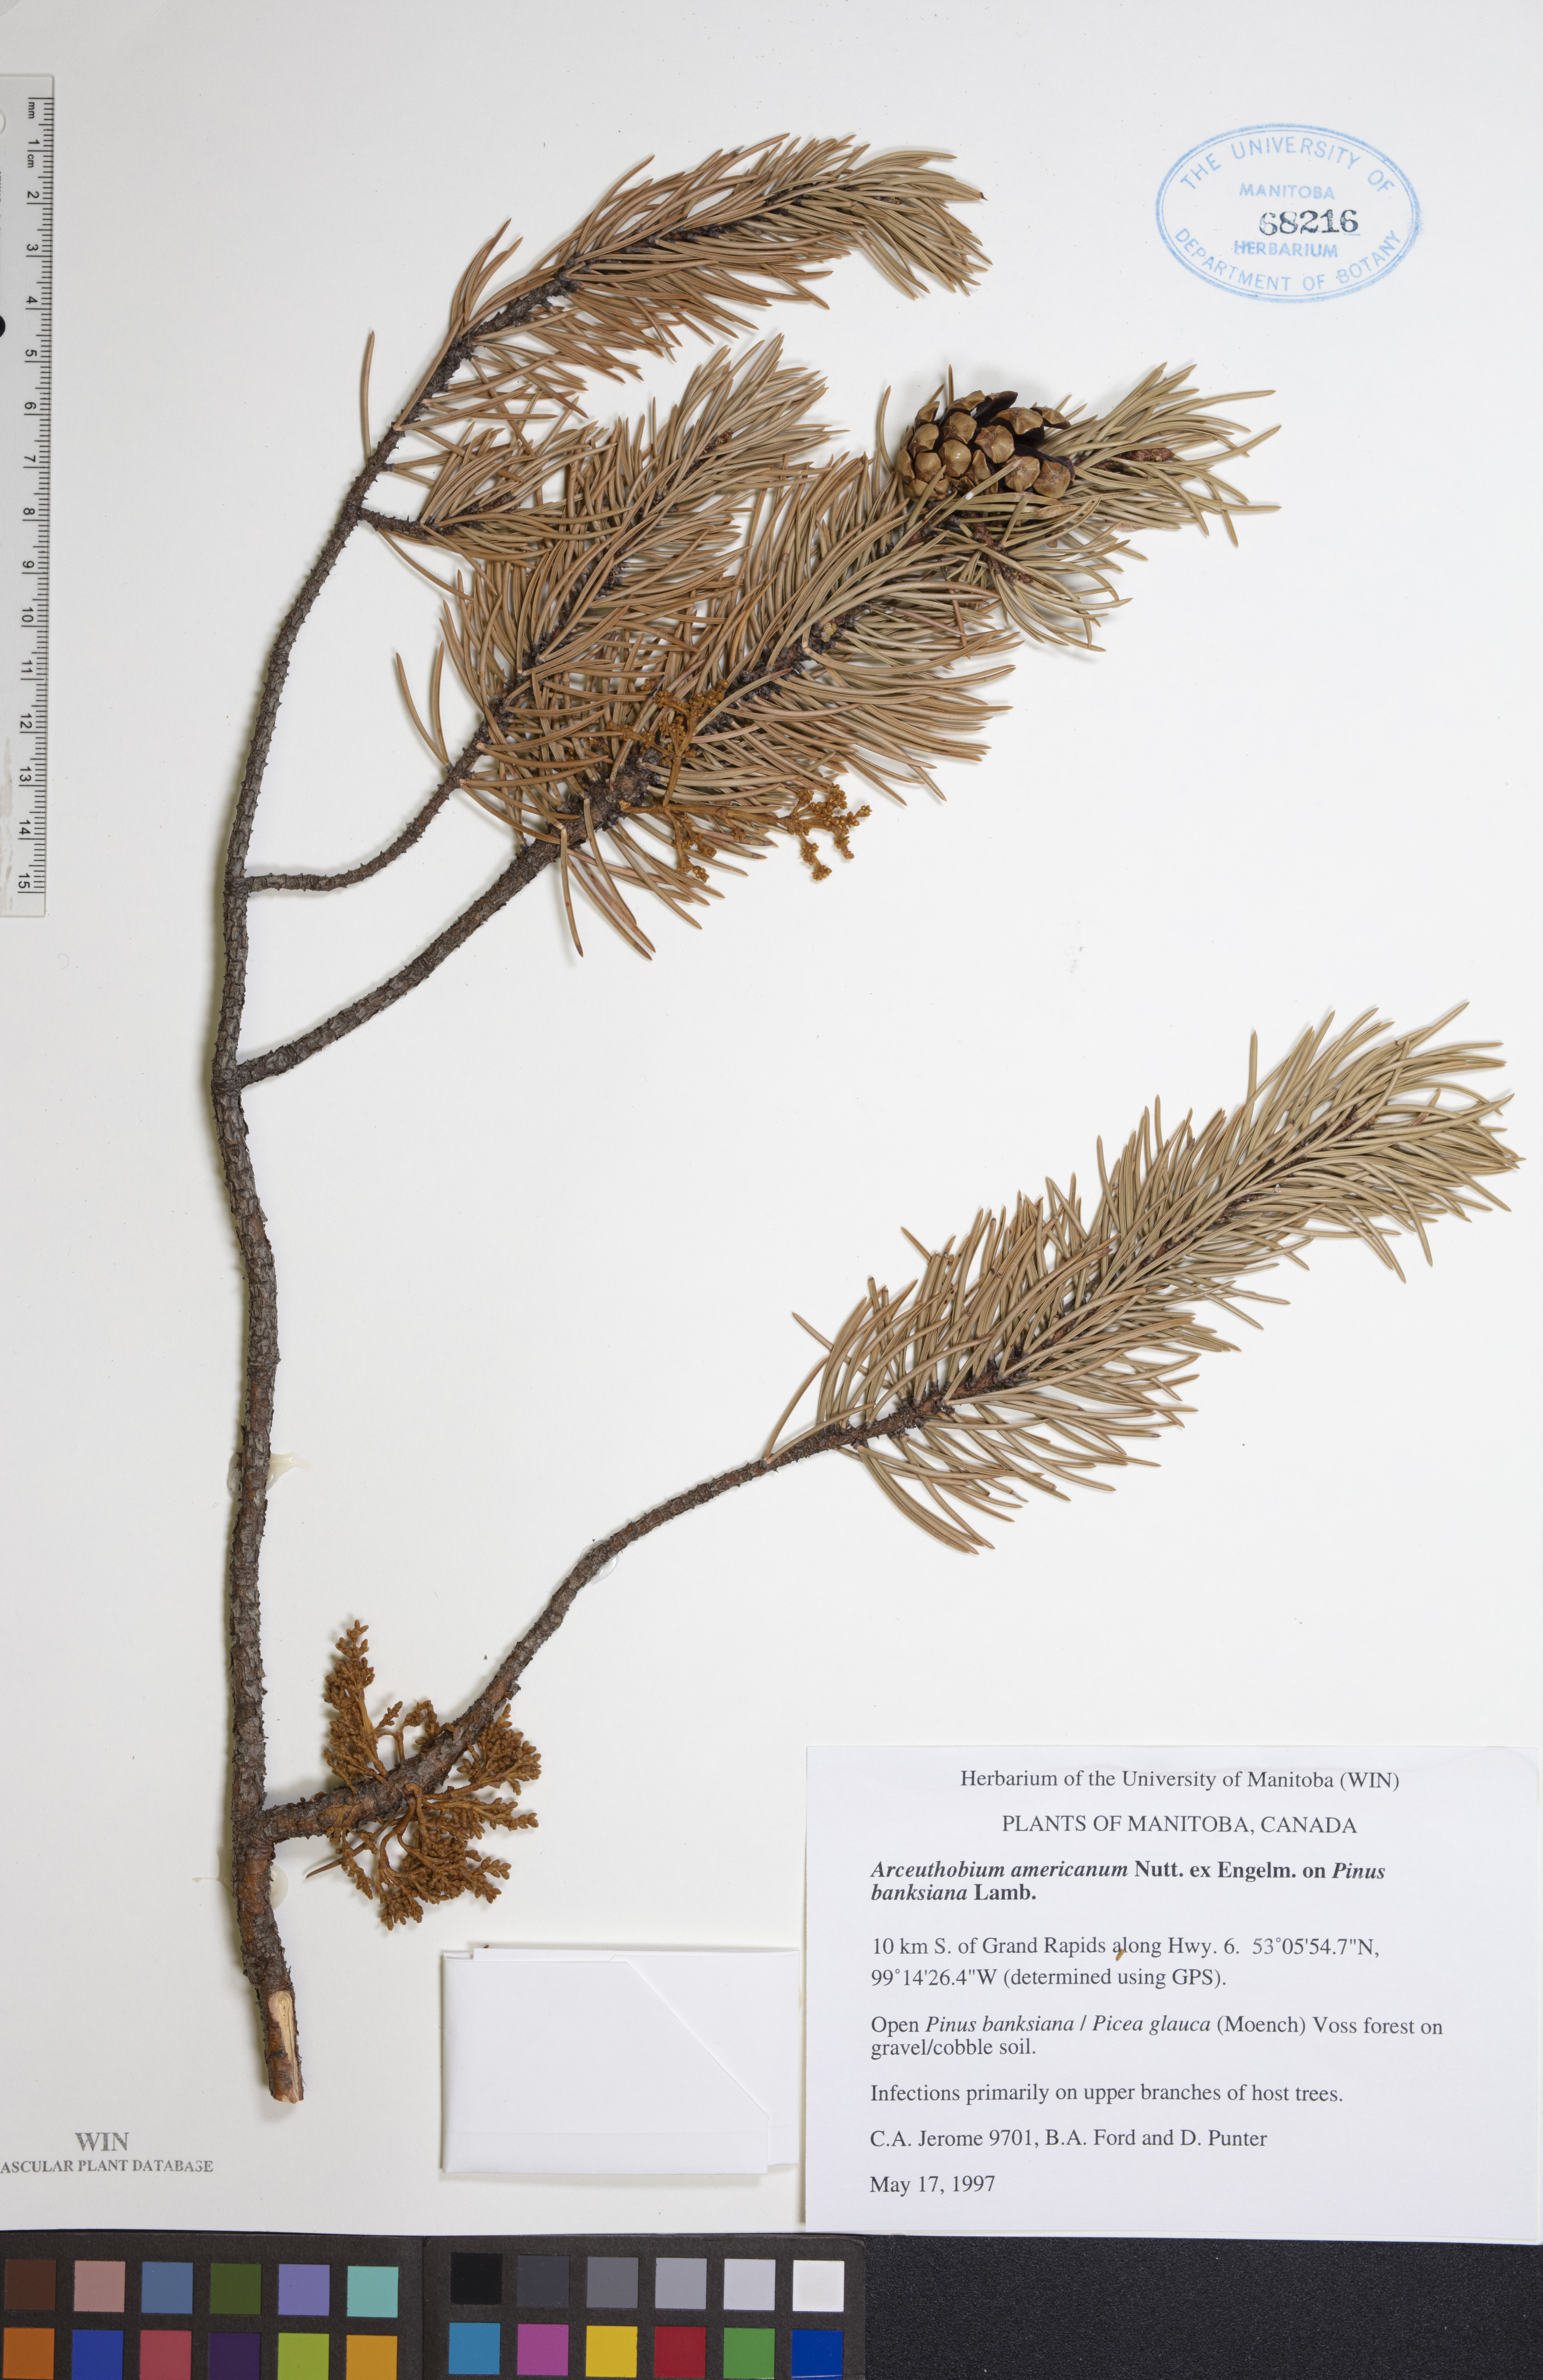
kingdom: Plantae
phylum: Tracheophyta
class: Magnoliopsida
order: Santalales
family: Viscaceae
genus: Arceuthobium
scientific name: Arceuthobium americanum
